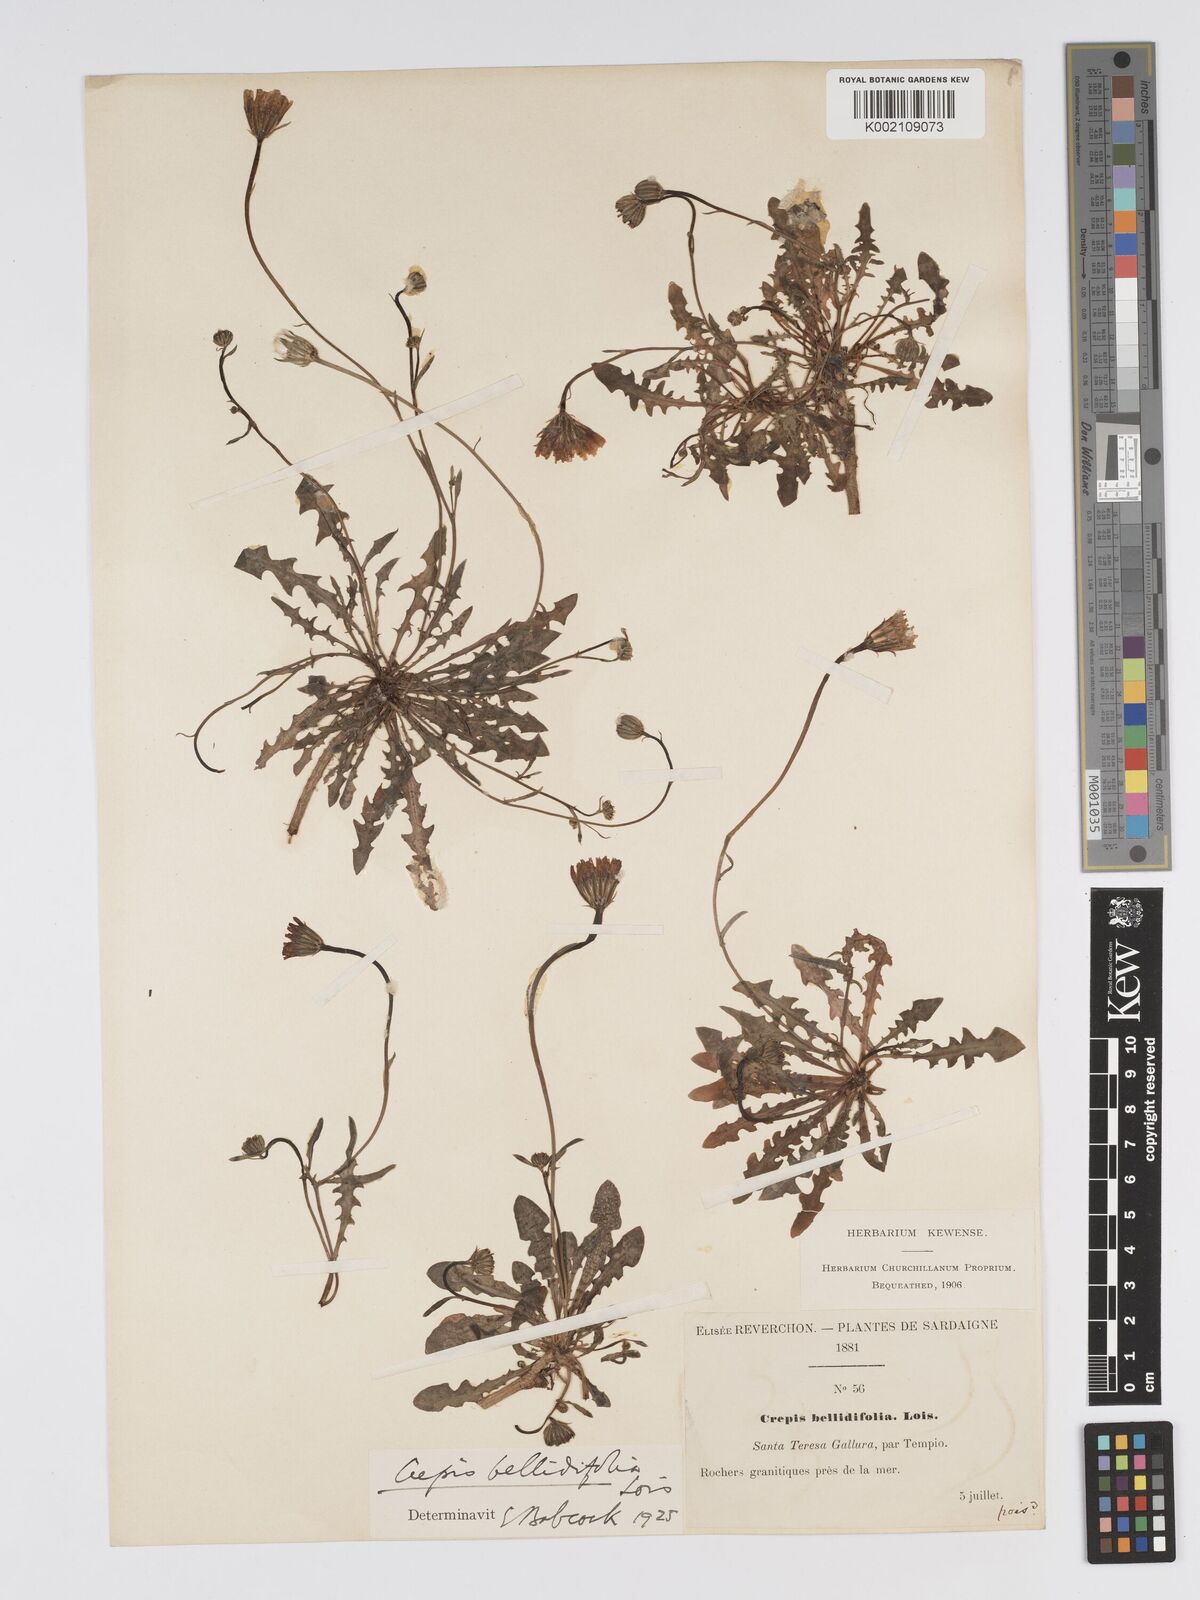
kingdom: Plantae
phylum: Tracheophyta
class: Magnoliopsida
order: Asterales
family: Asteraceae
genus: Crepis
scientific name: Crepis bellidifolia
